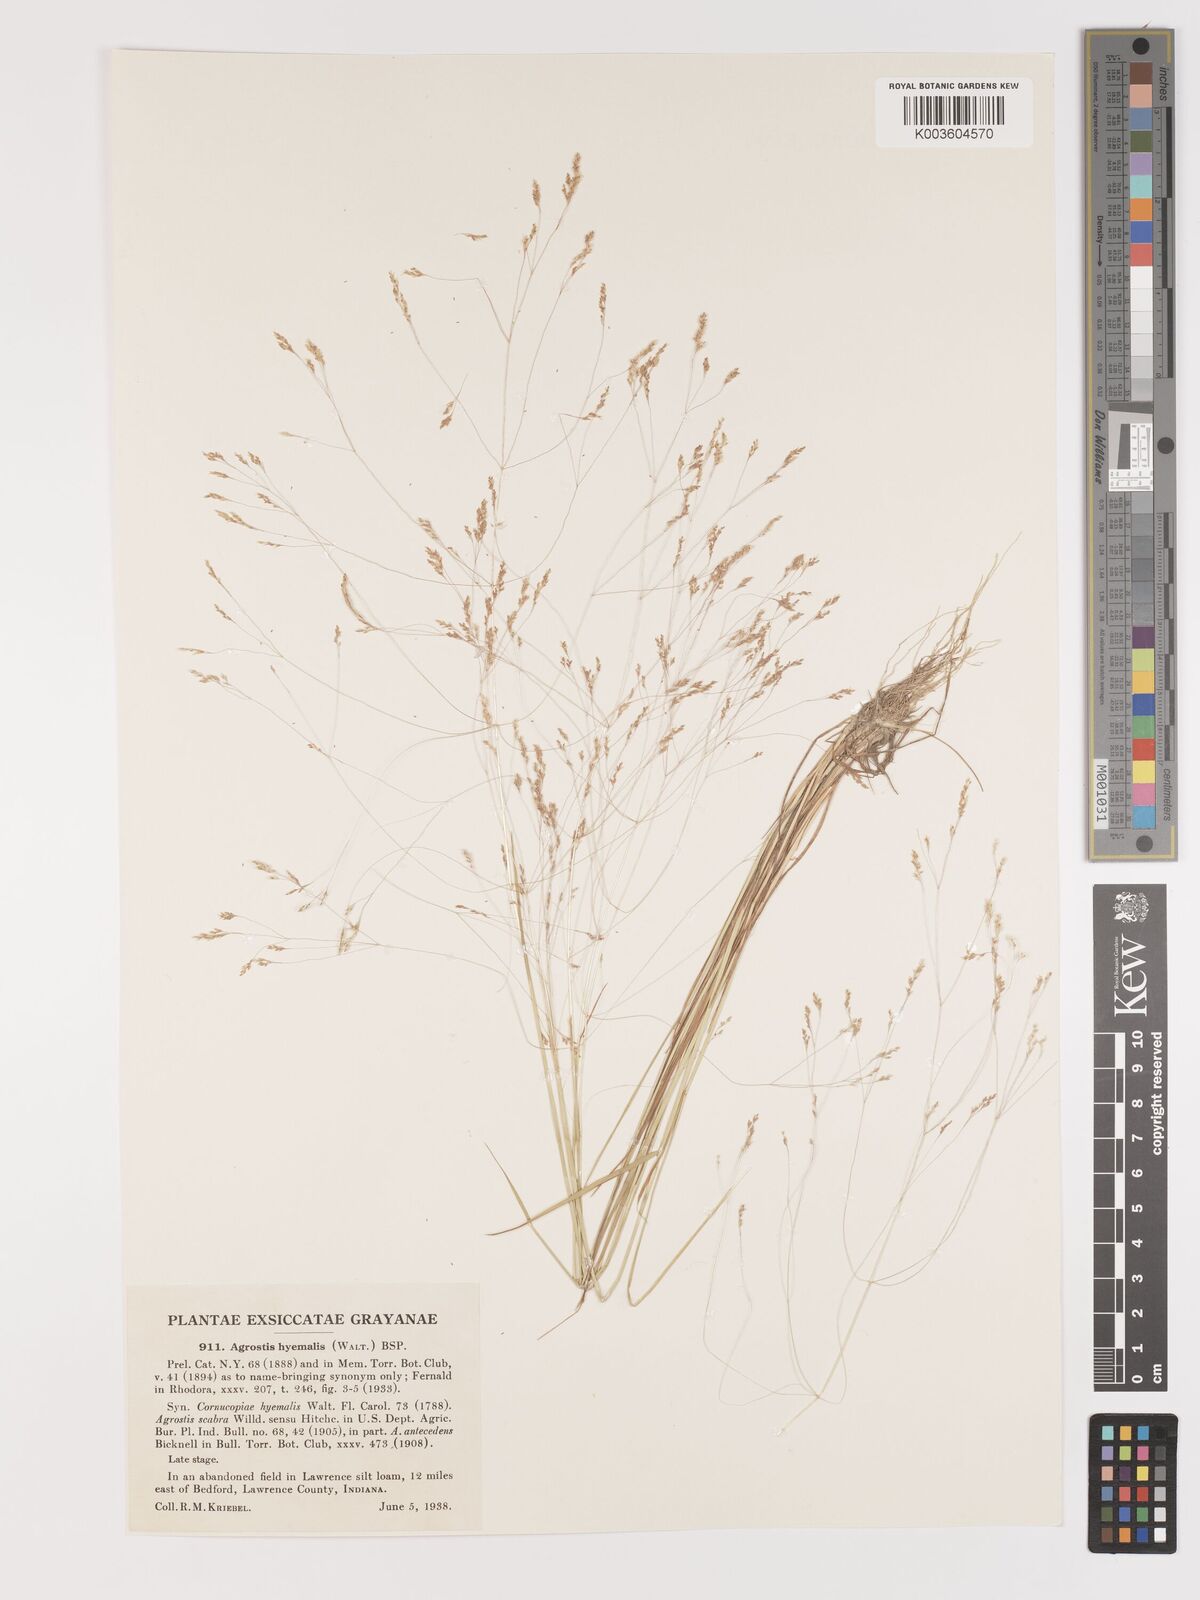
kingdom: Plantae
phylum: Tracheophyta
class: Liliopsida
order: Poales
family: Poaceae
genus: Agrostis
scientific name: Agrostis hyemalis
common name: Small bent
